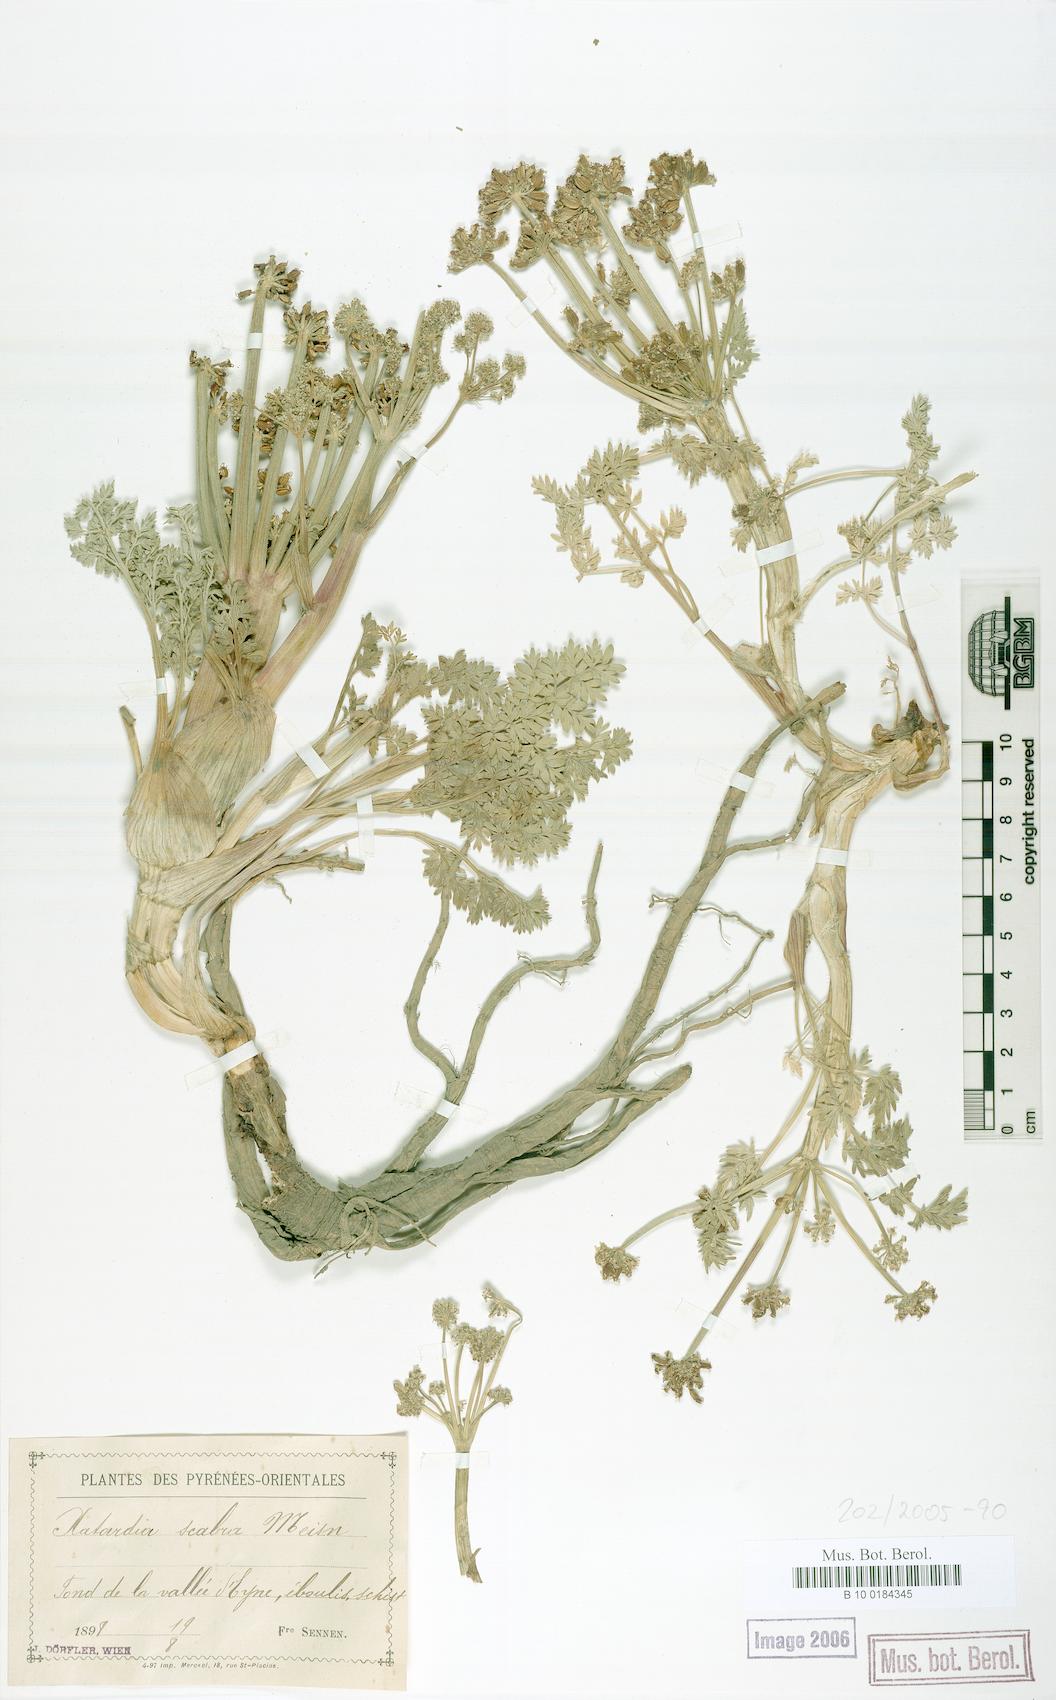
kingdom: Plantae
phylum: Tracheophyta
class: Magnoliopsida
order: Apiales
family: Apiaceae
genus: Xatardia
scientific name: Xatardia scabra
